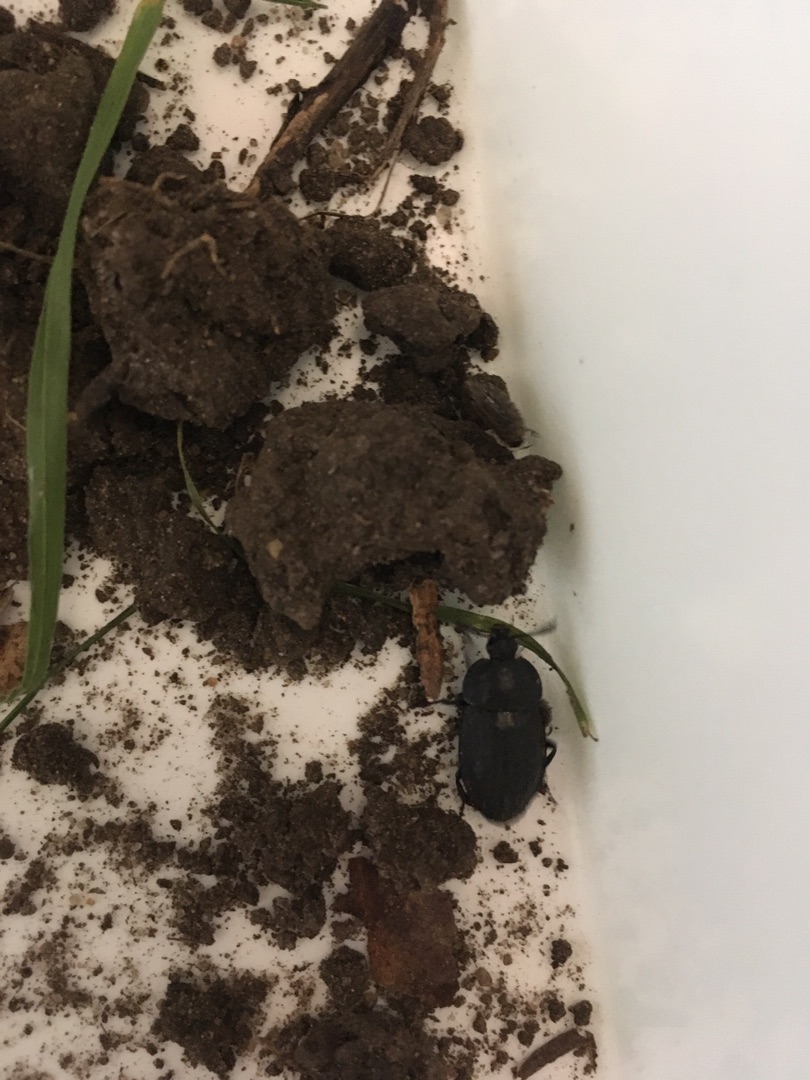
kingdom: Animalia
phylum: Arthropoda
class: Insecta
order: Coleoptera
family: Staphylinidae
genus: Silpha
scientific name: Silpha carinata
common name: Sort ådselbille
